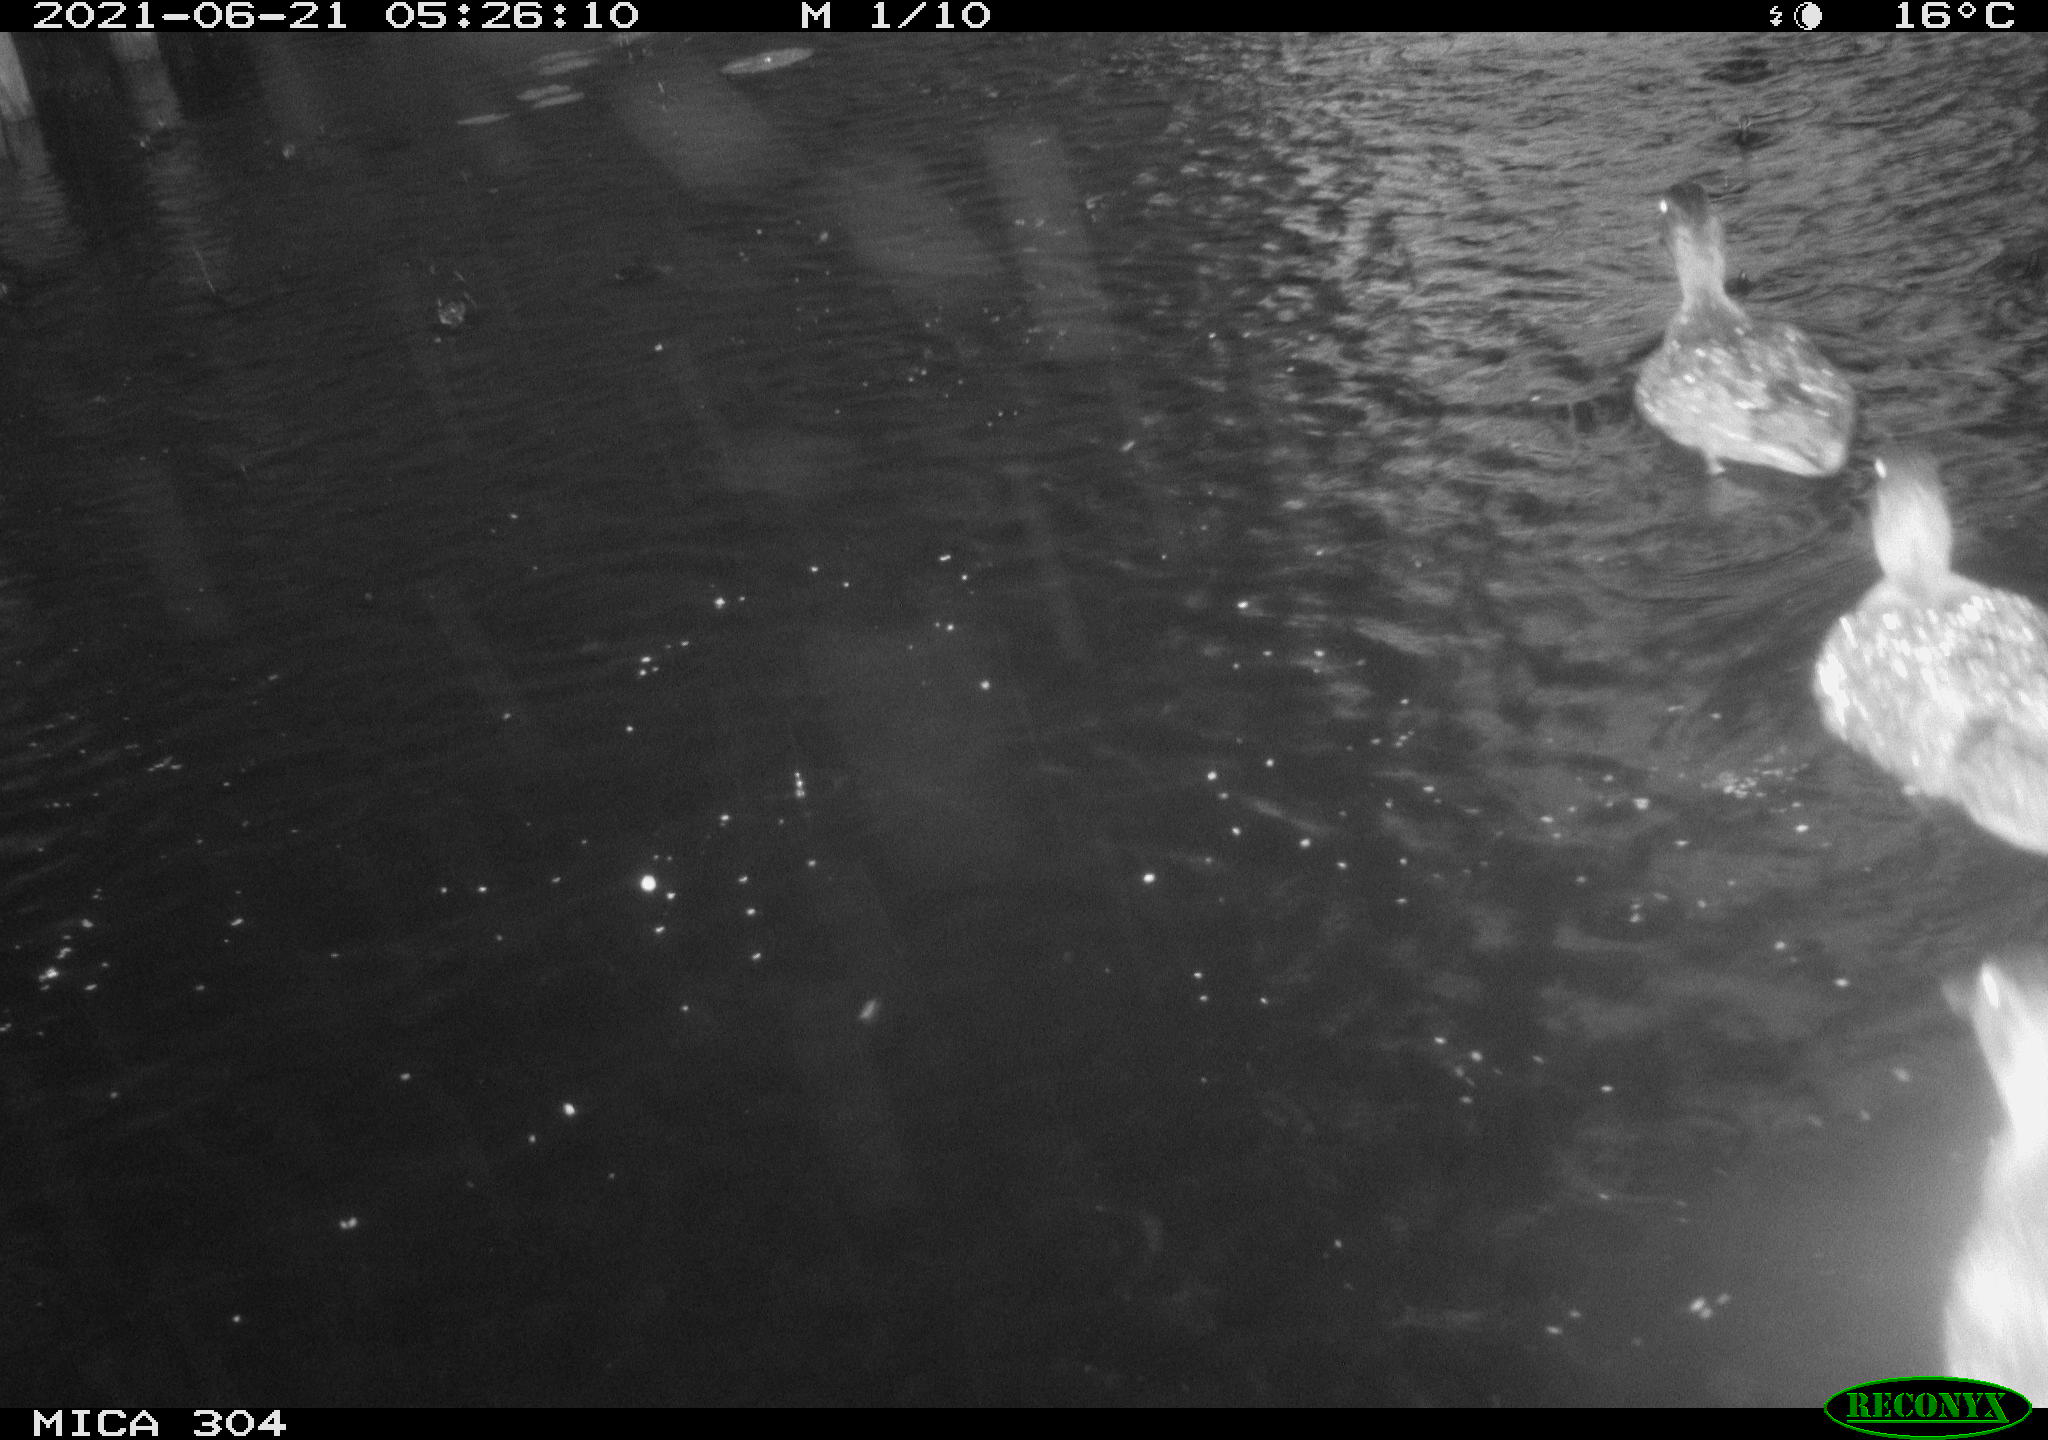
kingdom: Animalia
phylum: Chordata
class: Aves
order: Anseriformes
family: Anatidae
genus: Mareca
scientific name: Mareca strepera
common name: Gadwall
